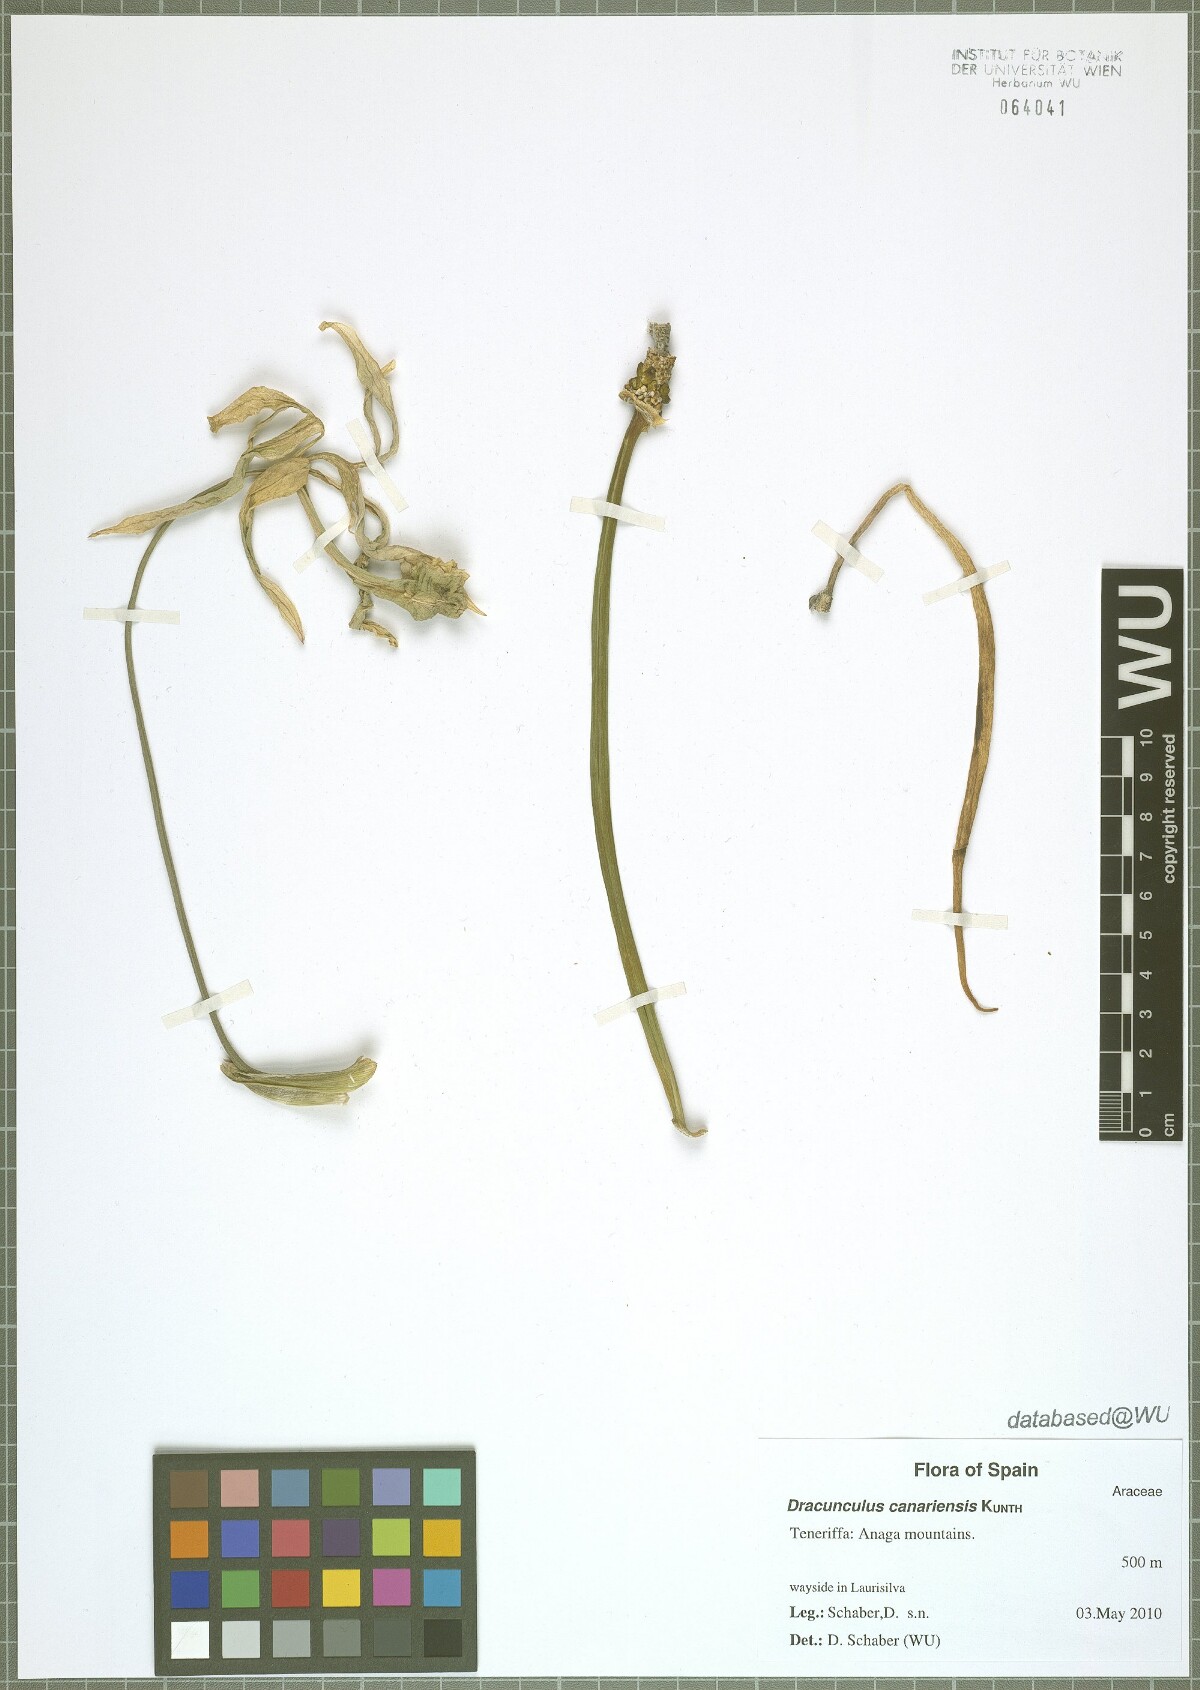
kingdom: Plantae
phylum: Tracheophyta
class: Liliopsida
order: Alismatales
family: Araceae
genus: Dracunculus
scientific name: Dracunculus canariensis
